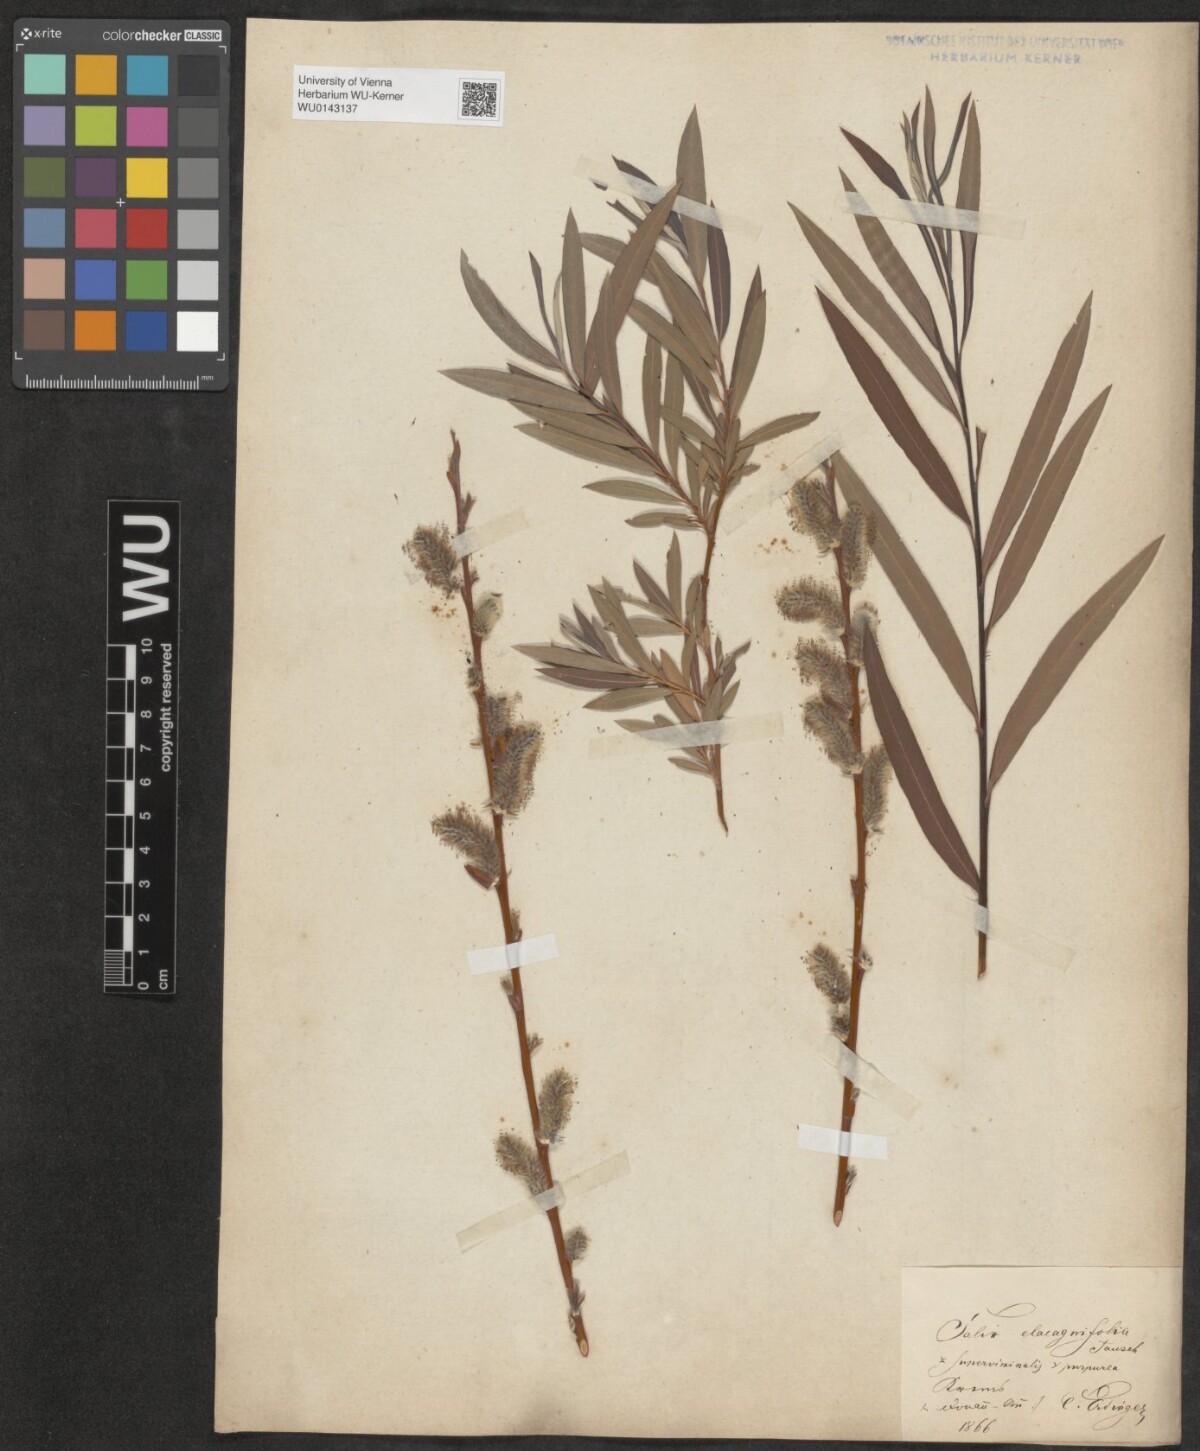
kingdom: Plantae
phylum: Tracheophyta
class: Magnoliopsida
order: Malpighiales
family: Salicaceae
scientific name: Salicaceae
